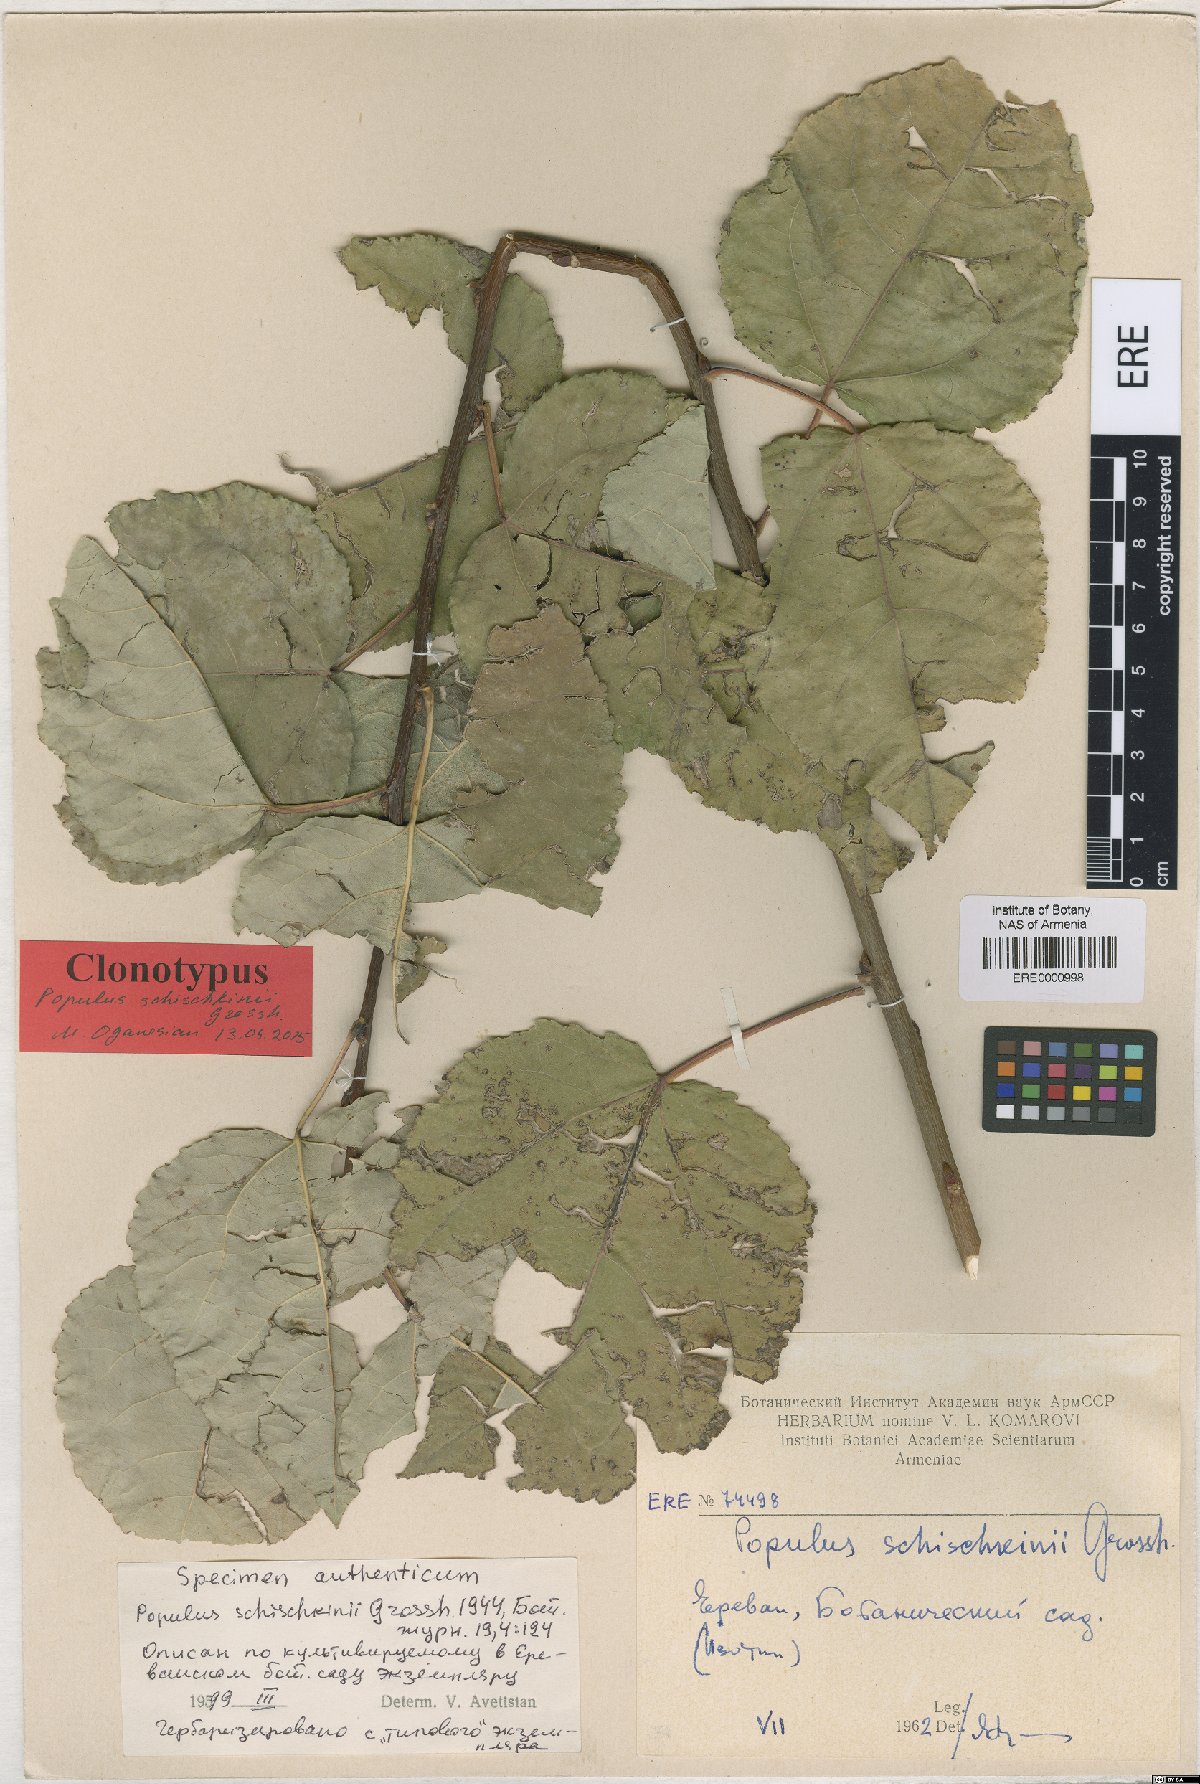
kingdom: Plantae
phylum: Tracheophyta
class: Magnoliopsida
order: Malpighiales
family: Salicaceae
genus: Populus
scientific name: Populus canescens
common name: Gray poplar
